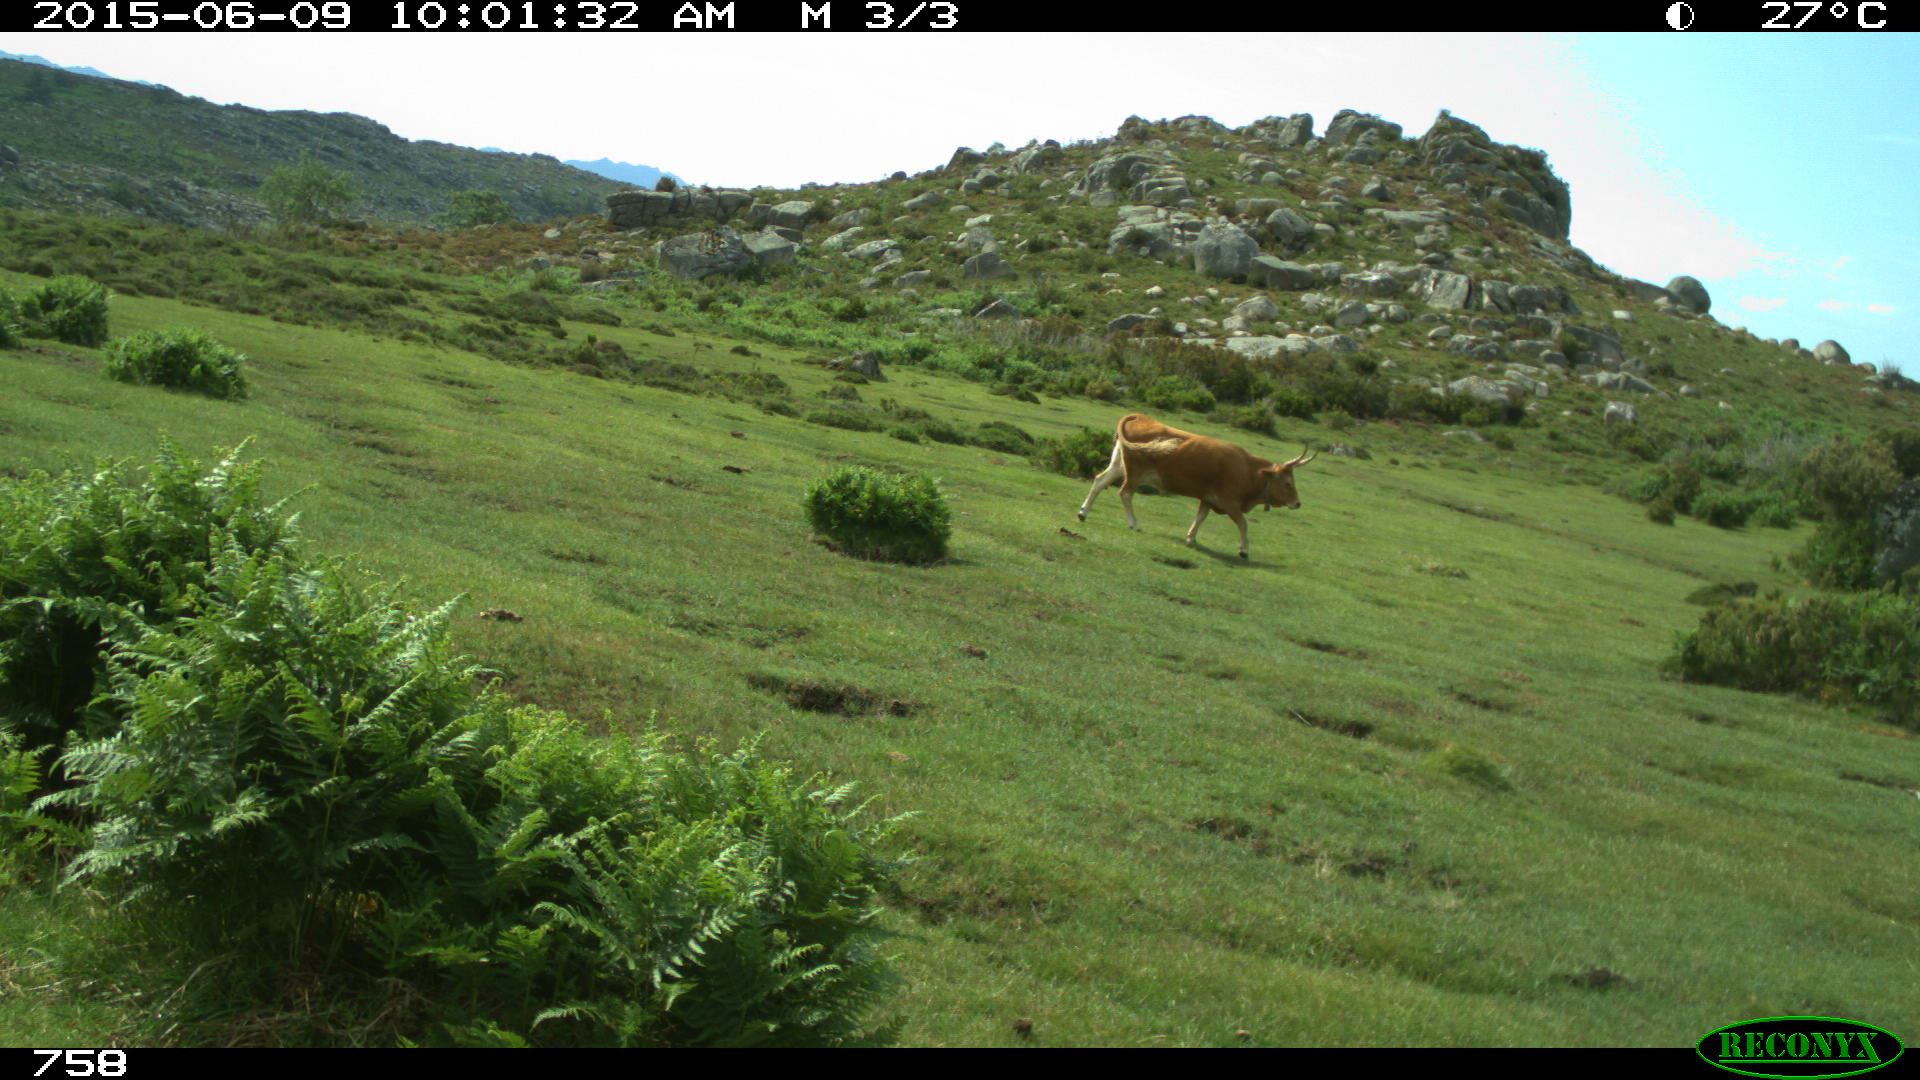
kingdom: Animalia
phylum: Chordata
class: Mammalia
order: Artiodactyla
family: Bovidae
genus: Bos
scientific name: Bos taurus
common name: Domesticated cattle
